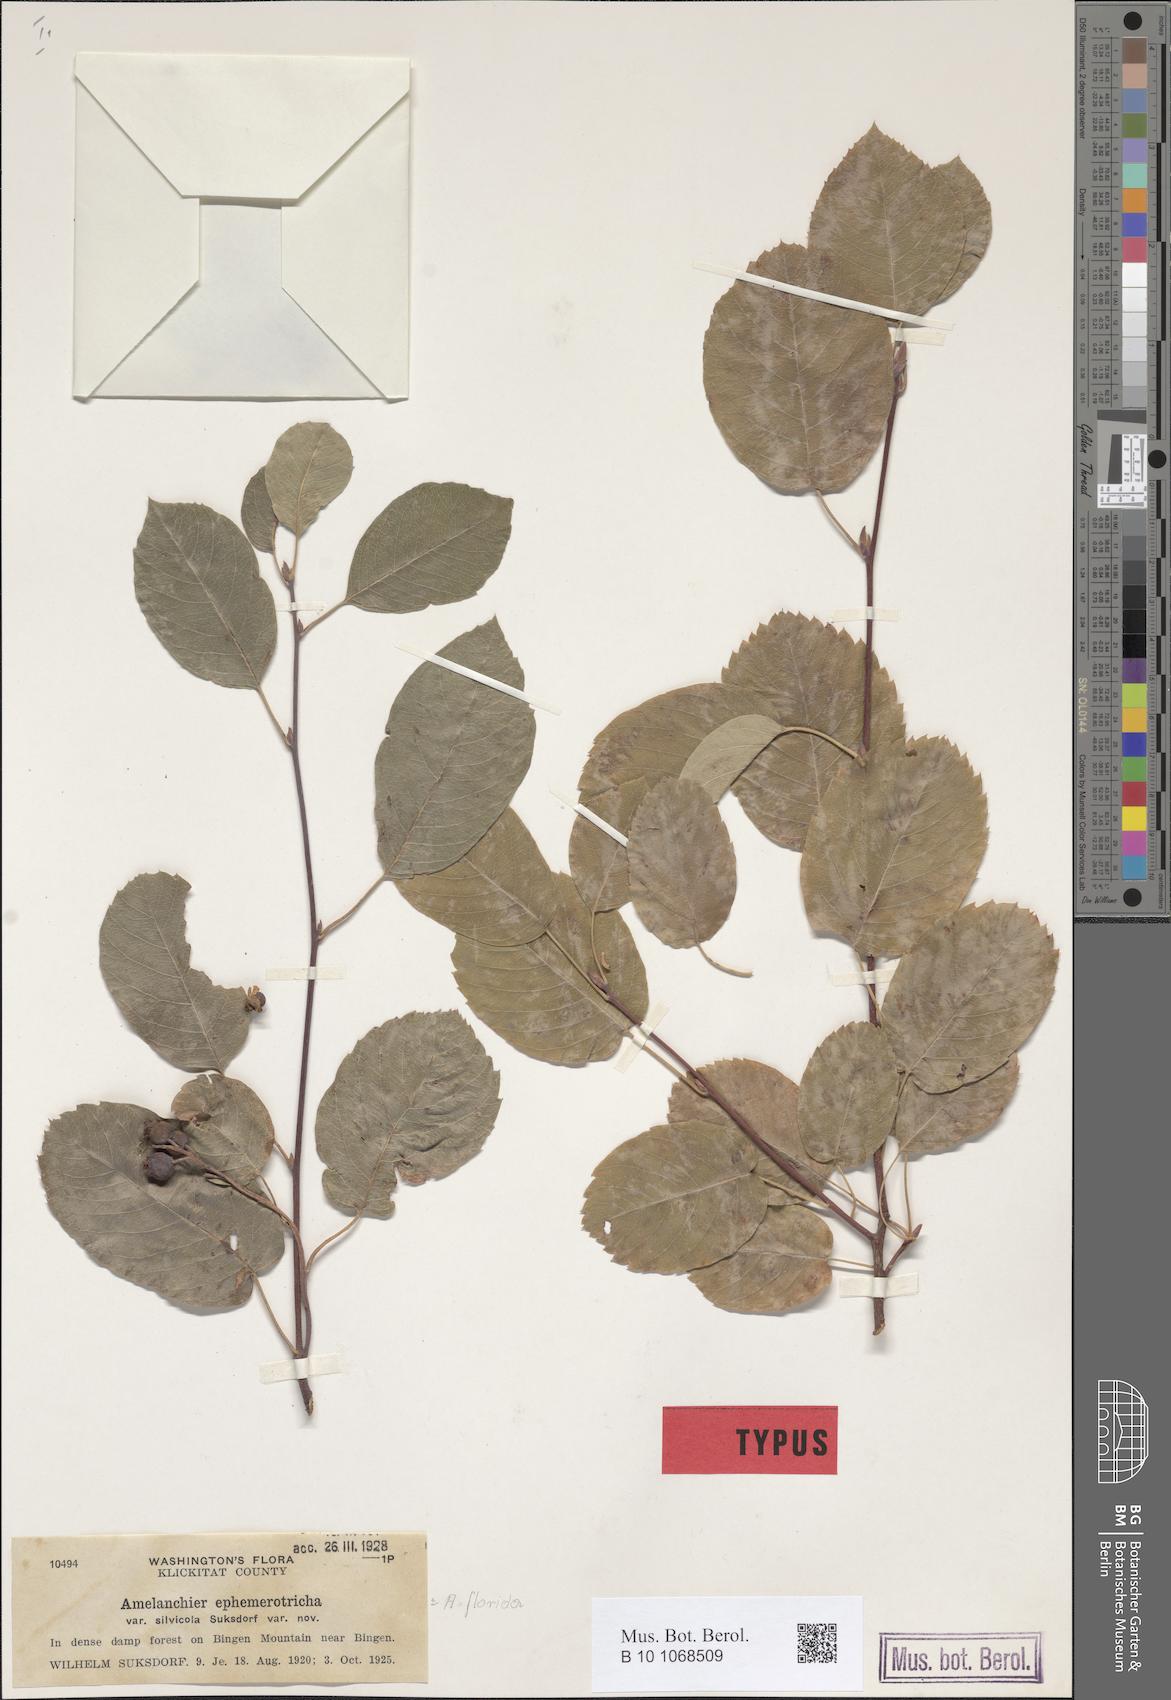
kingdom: Plantae
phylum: Tracheophyta
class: Magnoliopsida
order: Rosales
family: Rosaceae
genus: Amelanchier
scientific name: Amelanchier alnifolia
